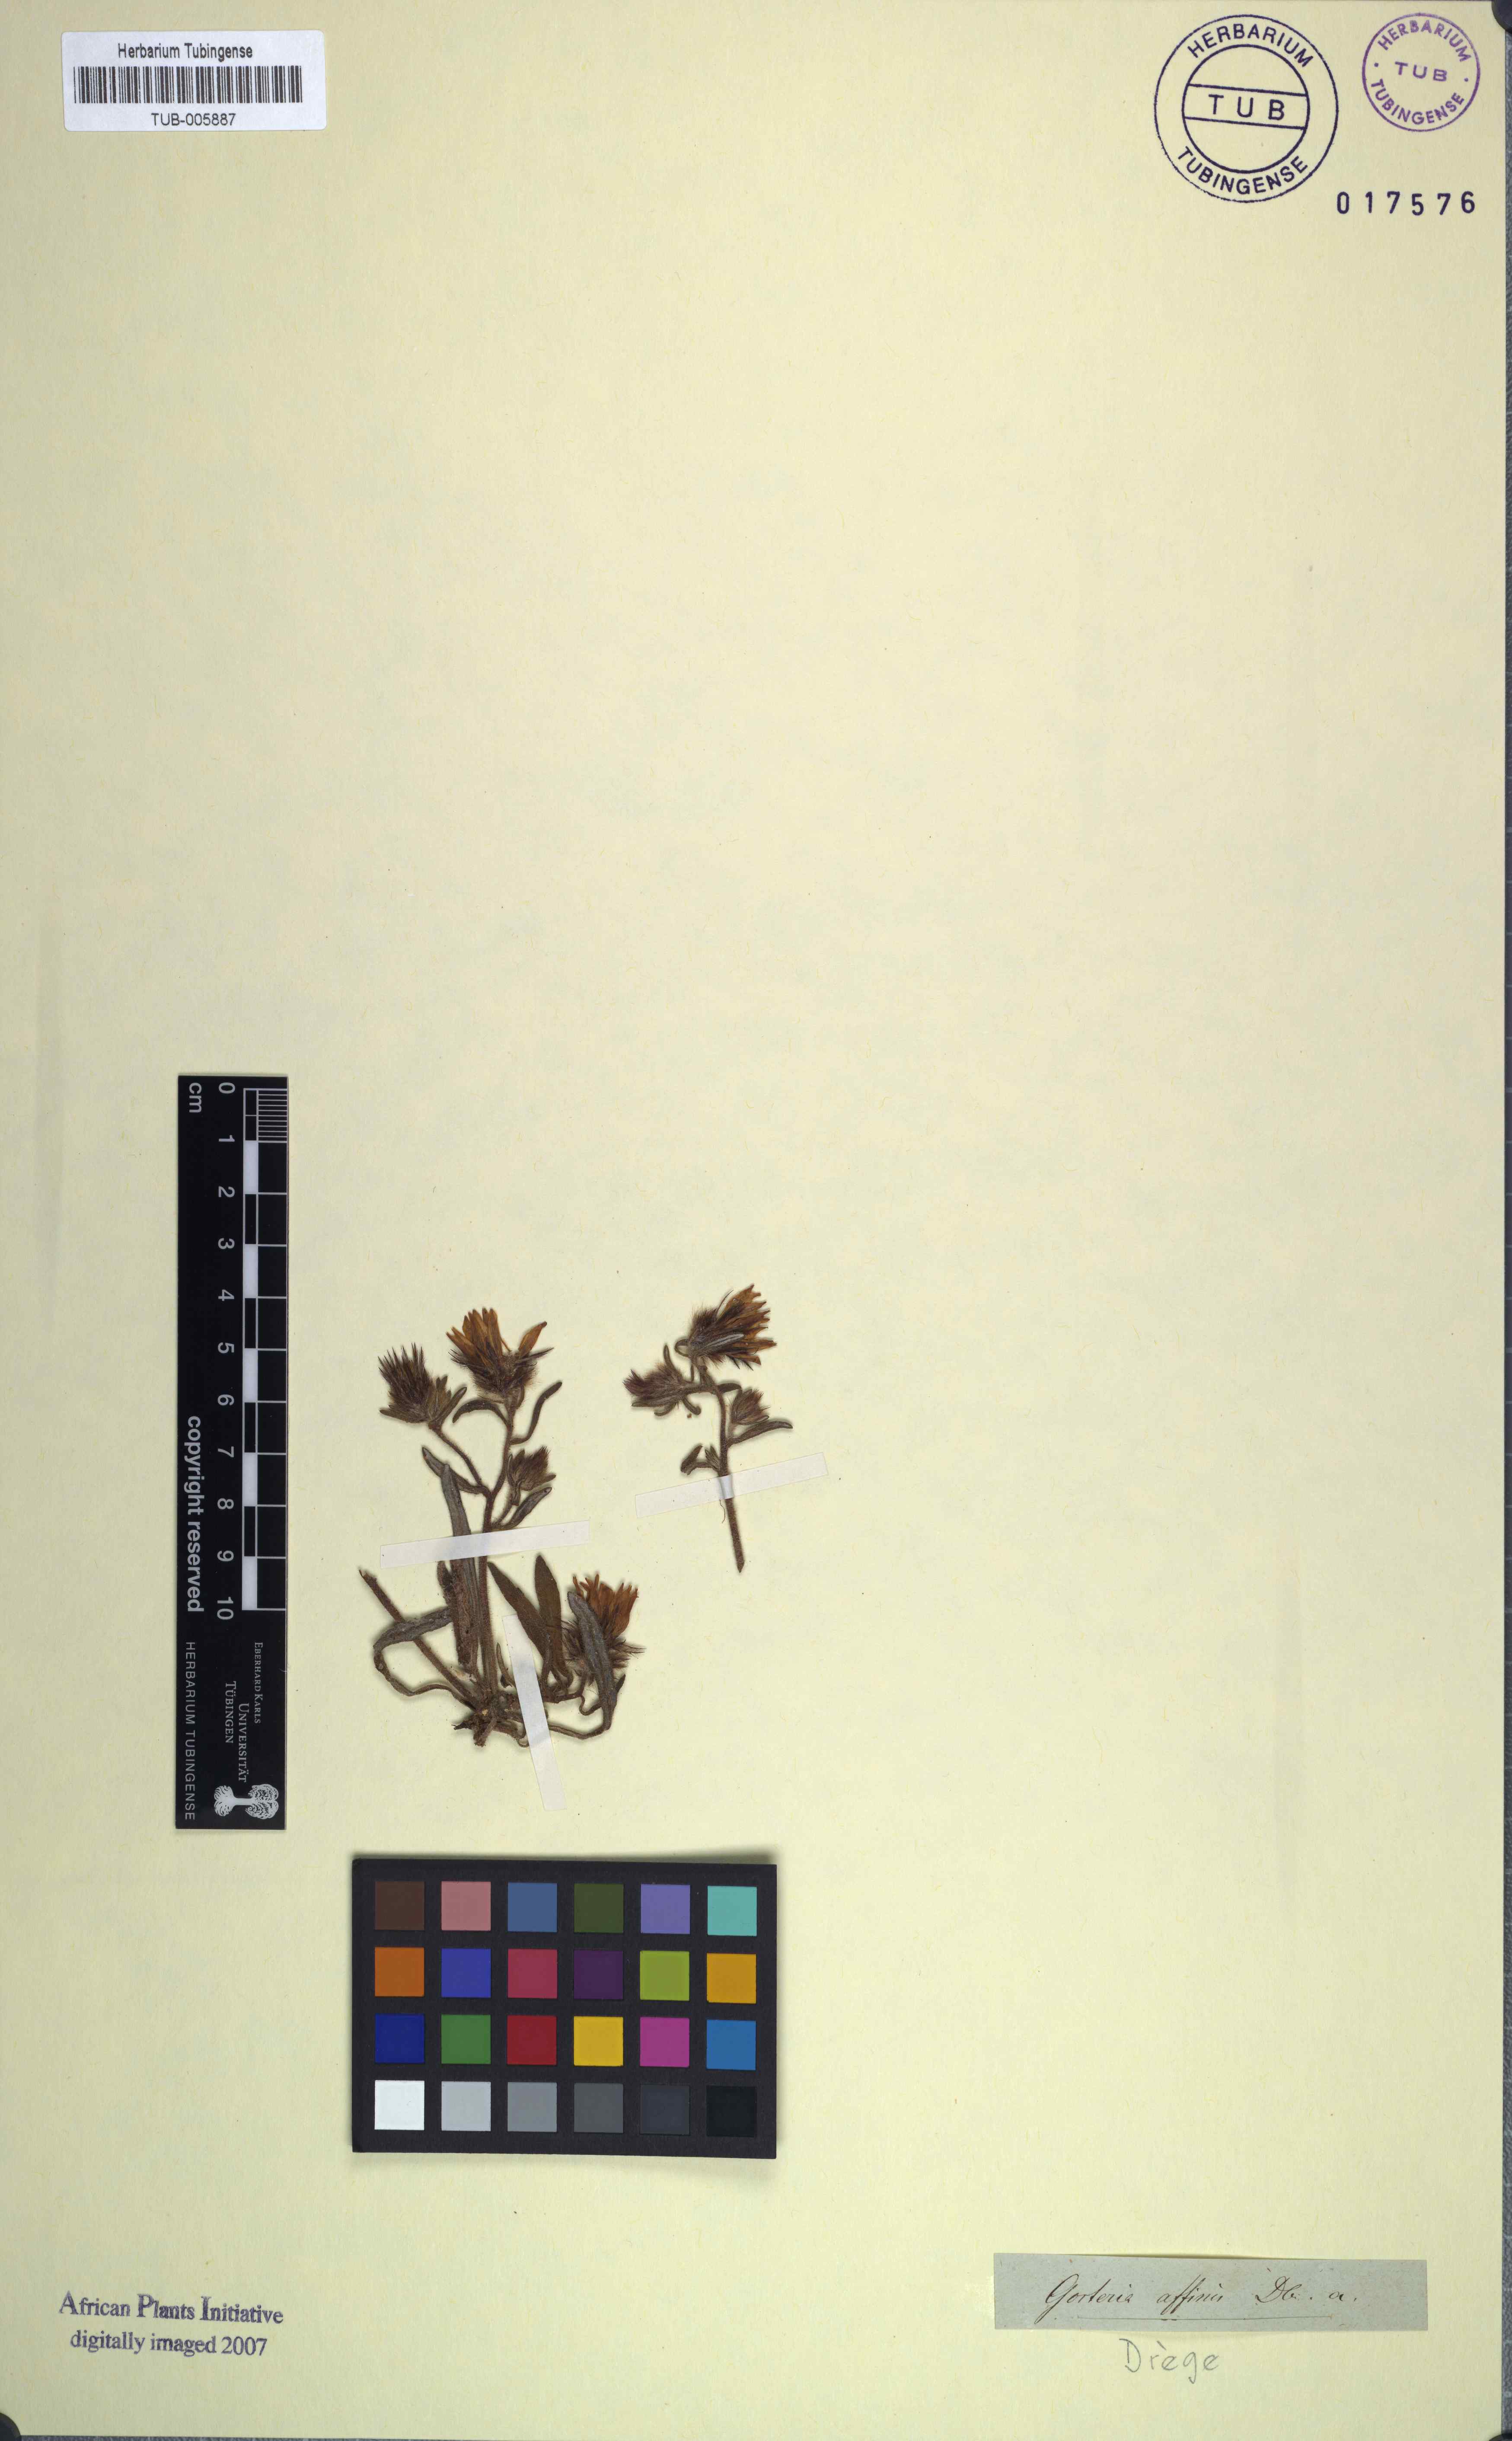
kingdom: Plantae
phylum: Tracheophyta
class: Magnoliopsida
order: Asterales
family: Asteraceae
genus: Gorteria
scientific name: Gorteria diffusa
